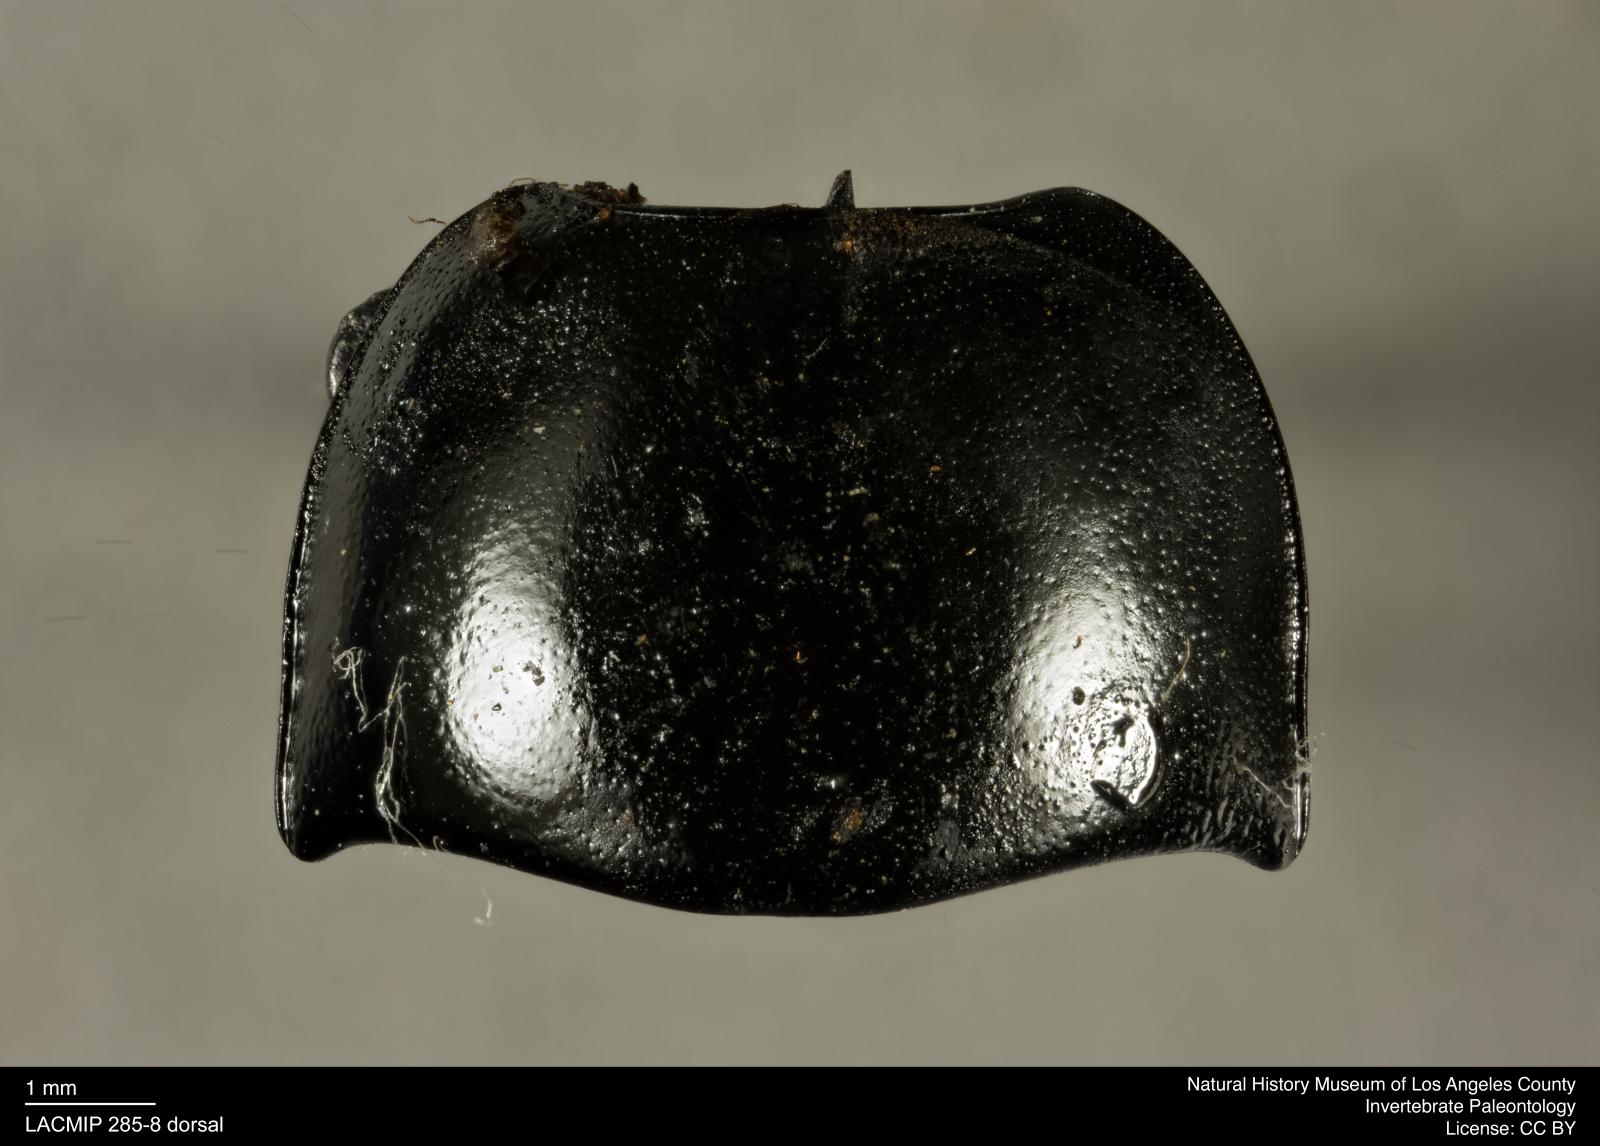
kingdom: Animalia
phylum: Arthropoda
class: Insecta
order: Coleoptera
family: Tenebrionidae
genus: Coniontis
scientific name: Coniontis abdominalis
